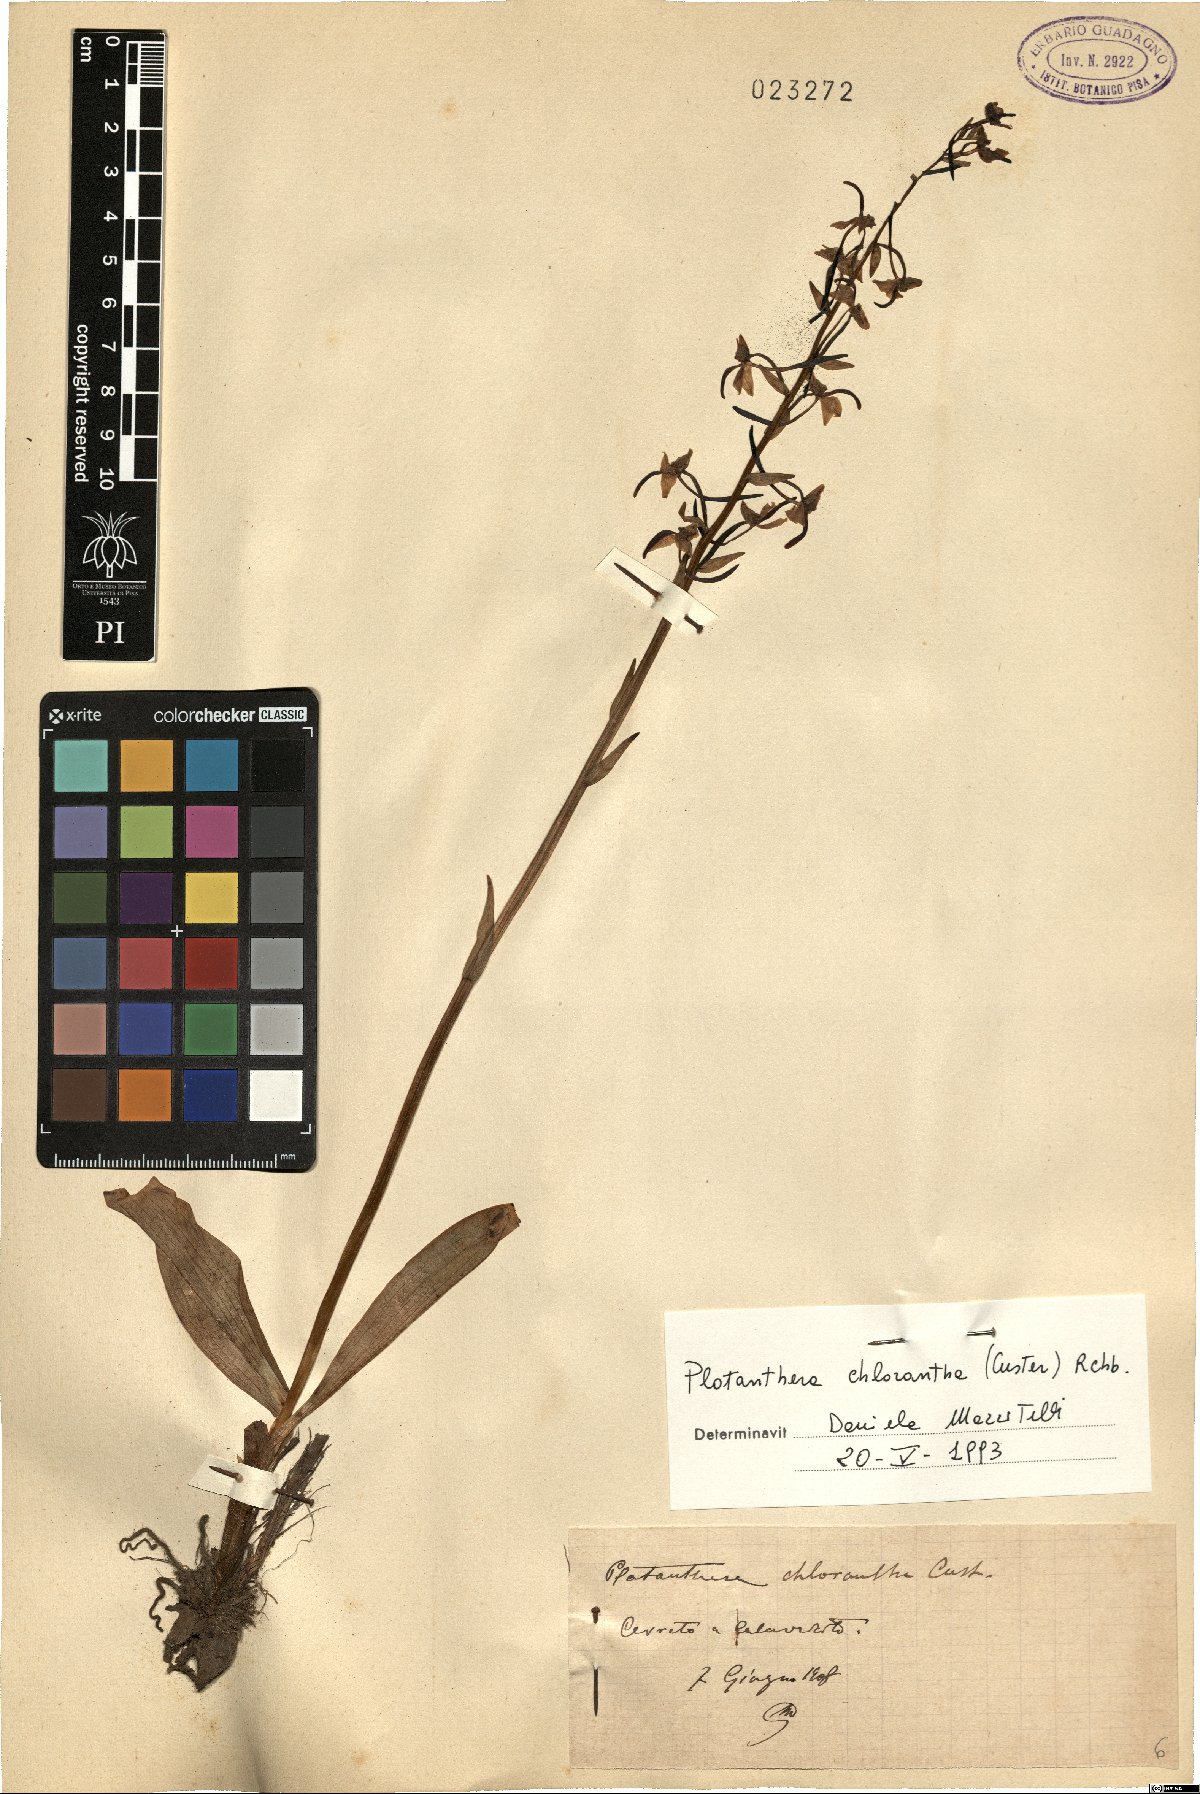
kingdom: Plantae
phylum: Tracheophyta
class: Liliopsida
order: Asparagales
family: Orchidaceae
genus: Platanthera
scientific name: Platanthera chlorantha
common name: Greater butterfly-orchid
